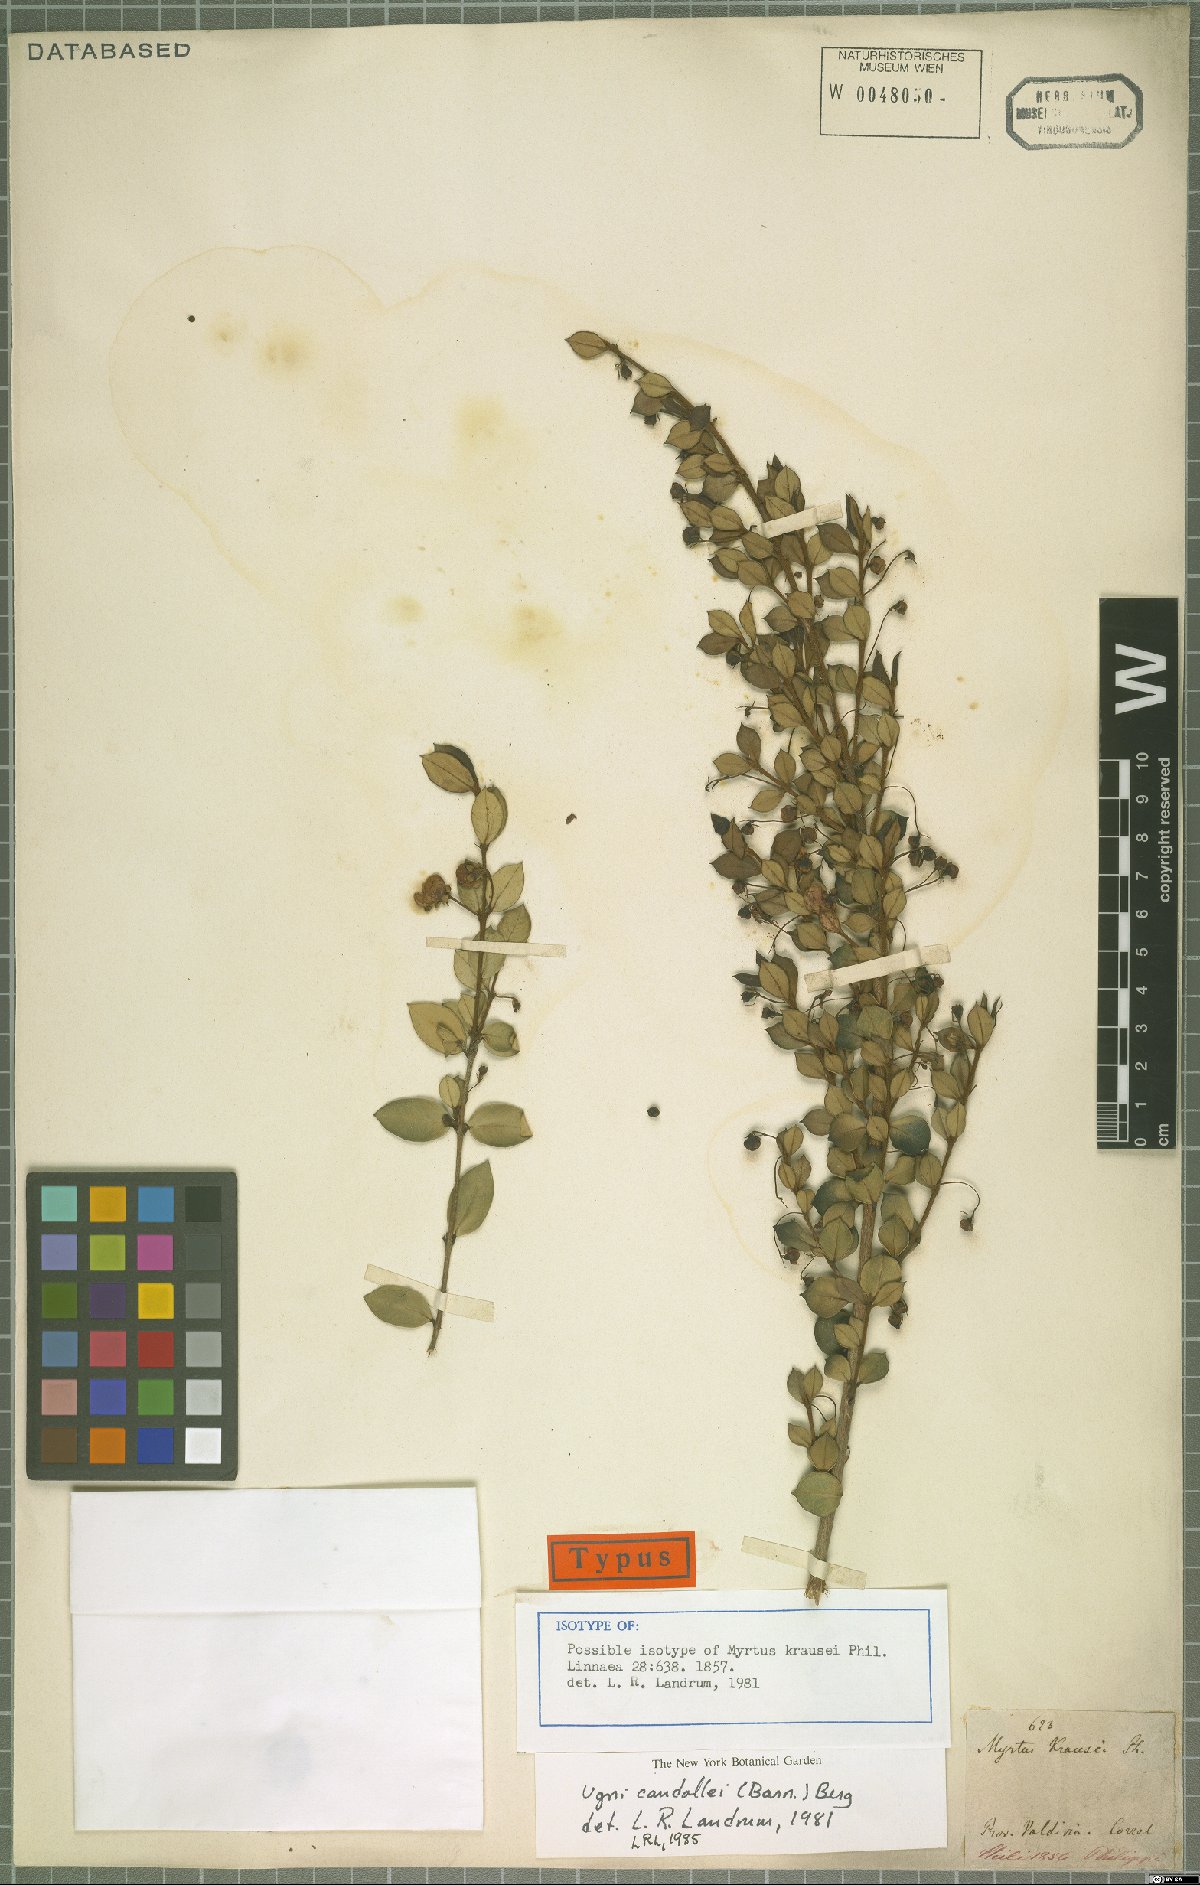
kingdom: Plantae
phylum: Tracheophyta
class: Magnoliopsida
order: Myrtales
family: Myrtaceae
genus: Ugni
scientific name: Ugni candollei
